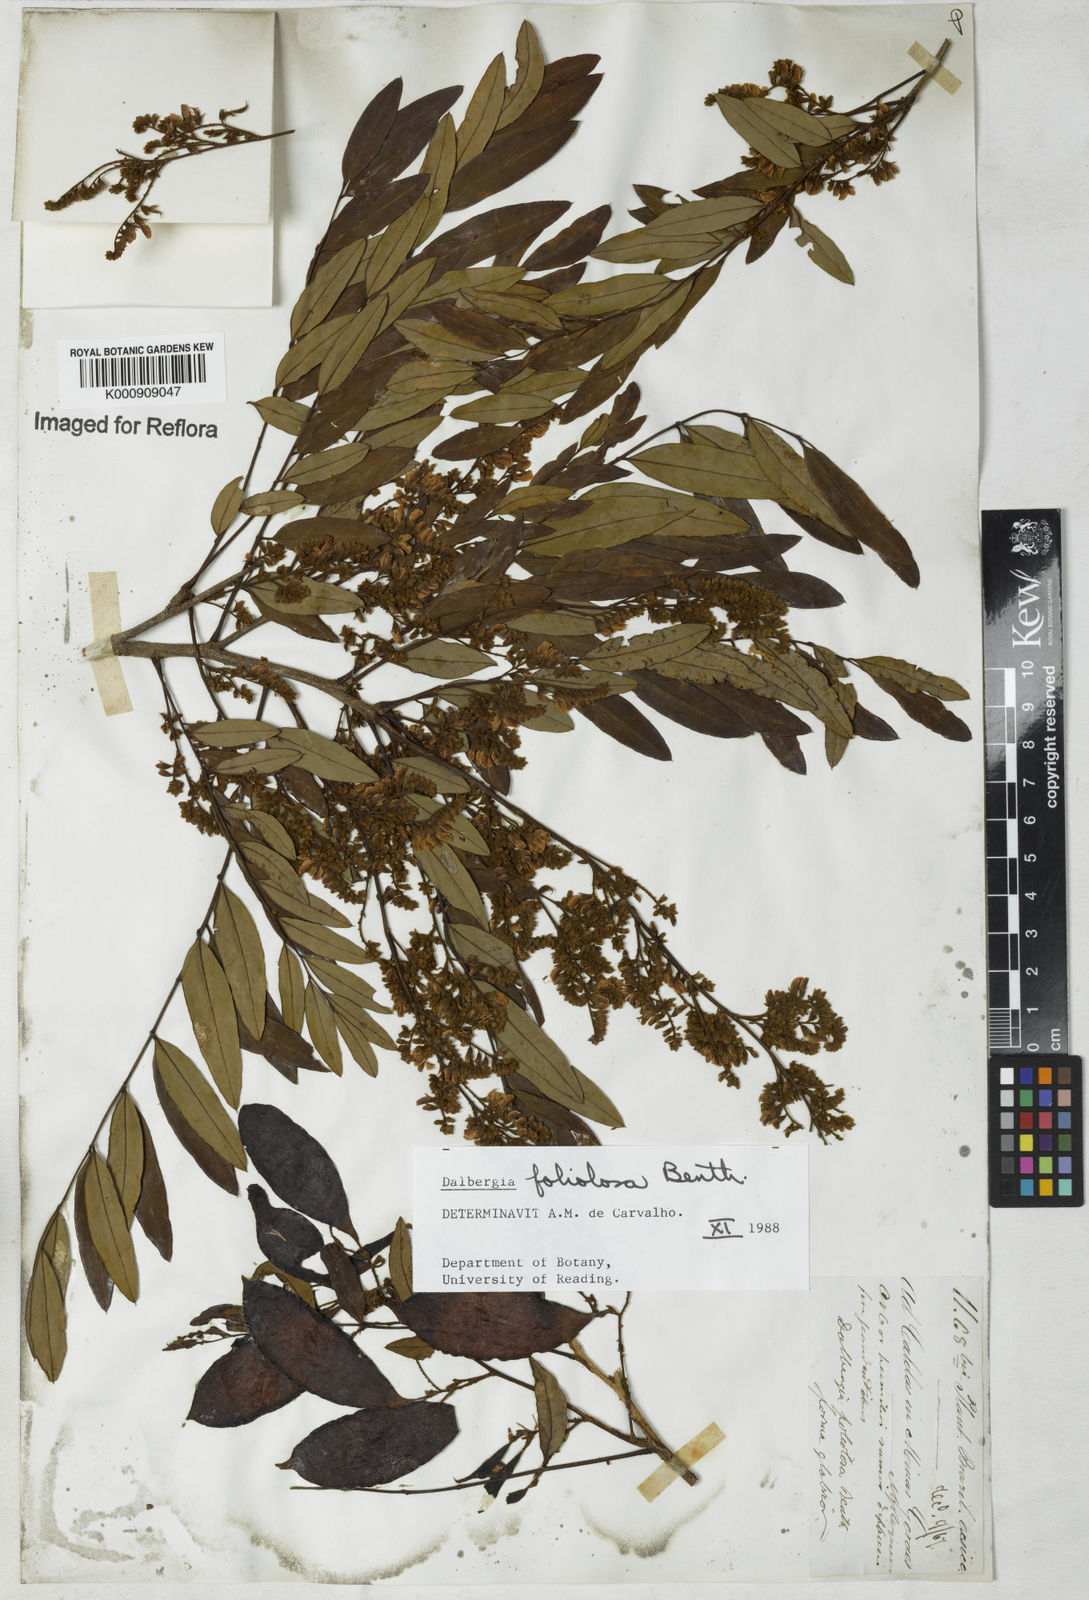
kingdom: Plantae
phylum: Tracheophyta
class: Magnoliopsida
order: Fabales
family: Fabaceae
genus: Dalbergia
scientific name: Dalbergia foliolosa
